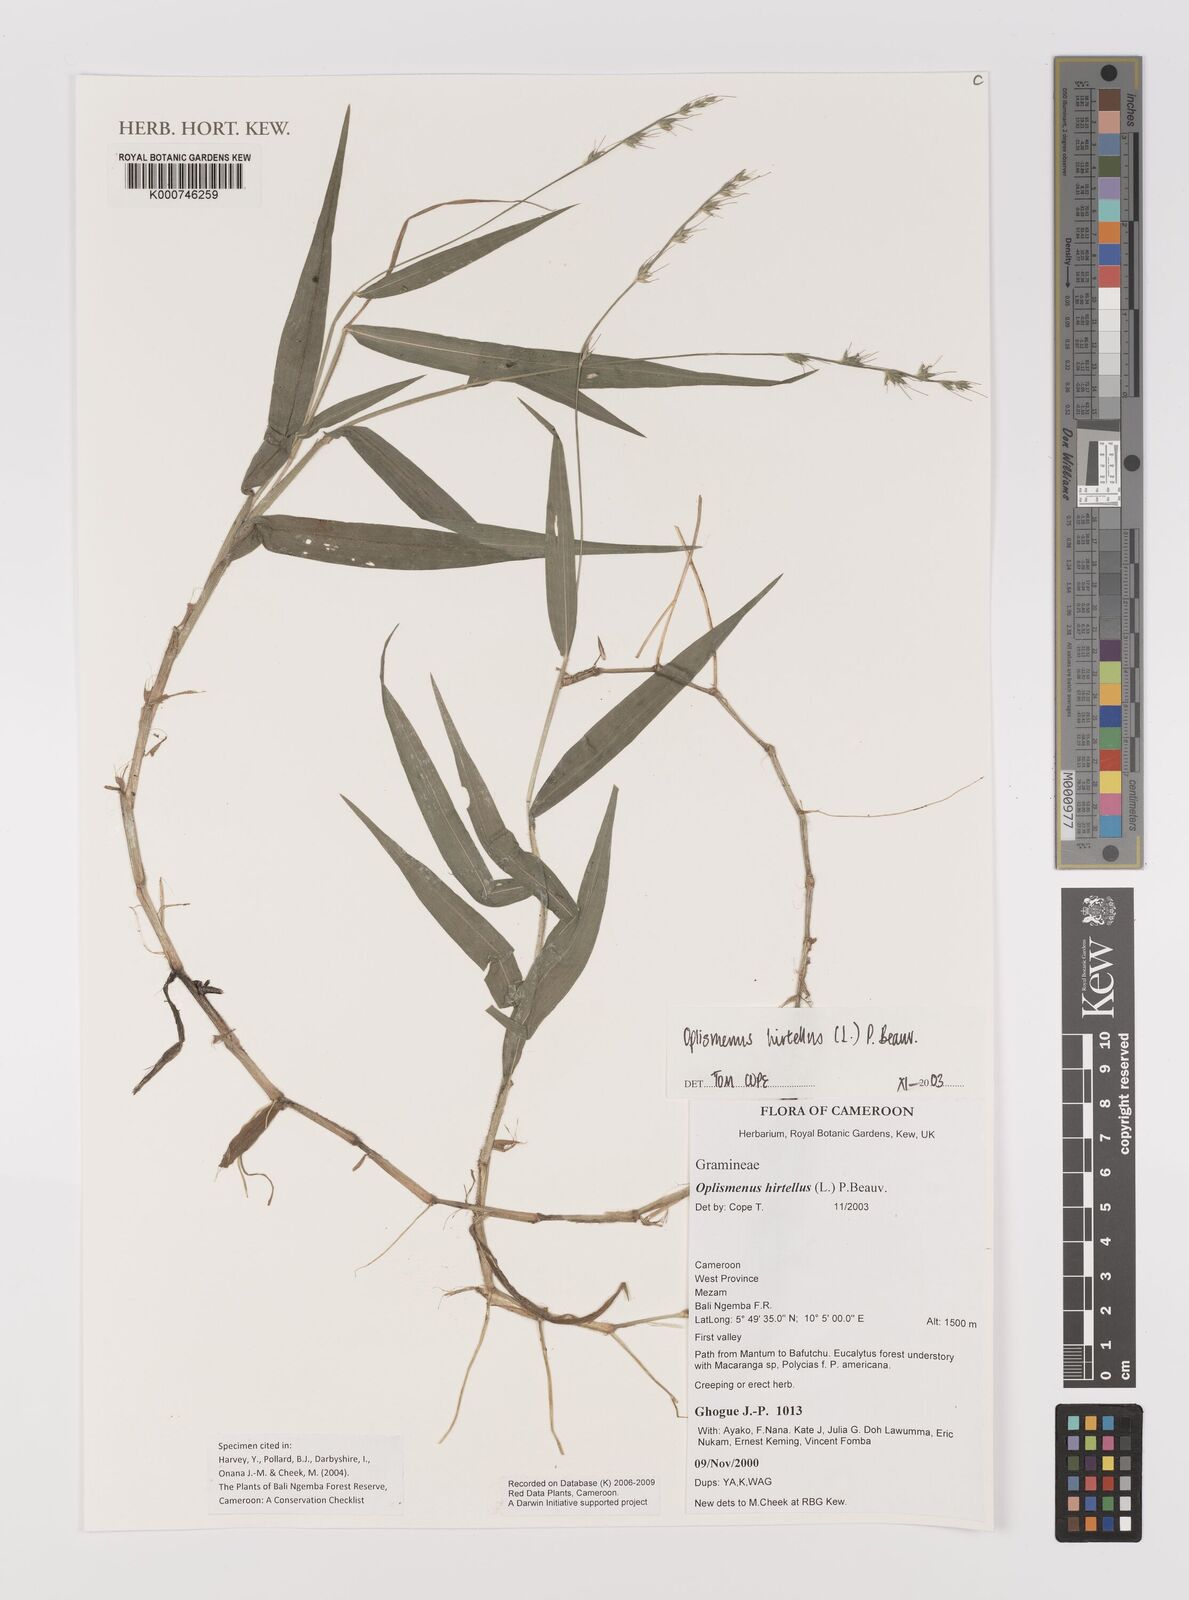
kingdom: Plantae
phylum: Tracheophyta
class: Liliopsida
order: Poales
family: Poaceae
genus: Oplismenus
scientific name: Oplismenus hirtellus
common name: Basketgrass
